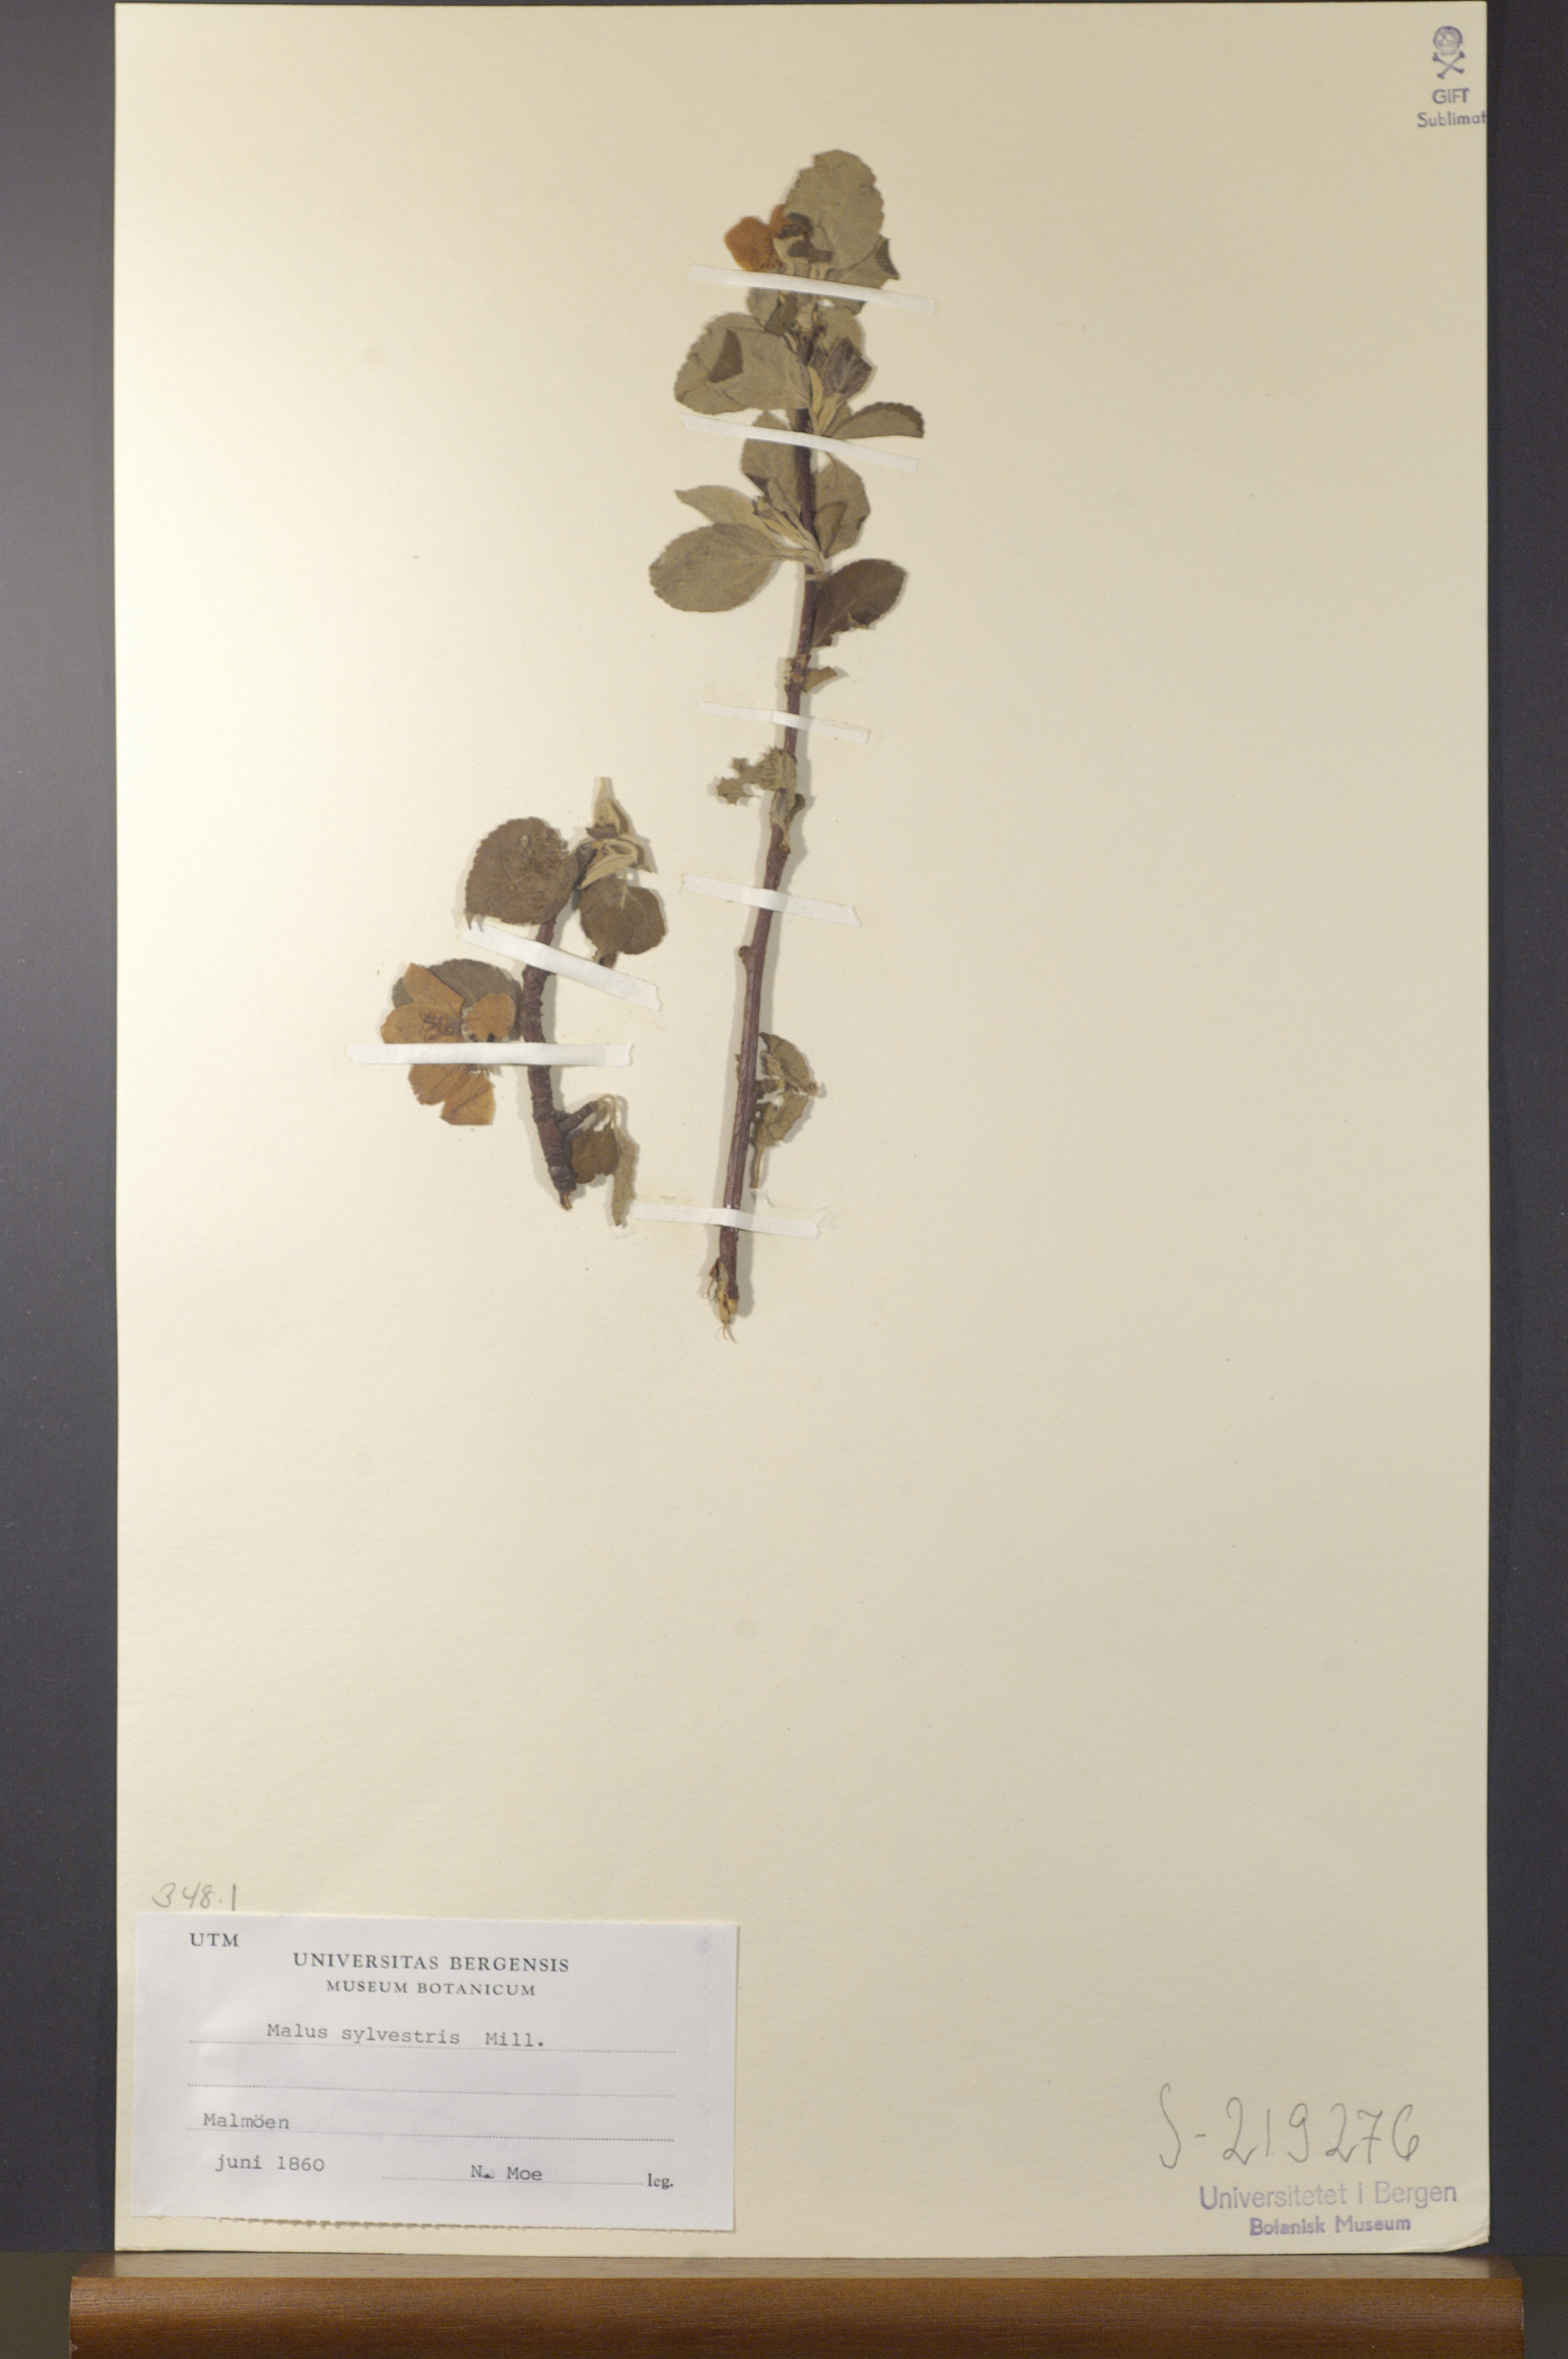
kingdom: Plantae
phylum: Tracheophyta
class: Magnoliopsida
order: Rosales
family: Rosaceae
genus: Malus
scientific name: Malus sylvestris
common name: Crab apple
